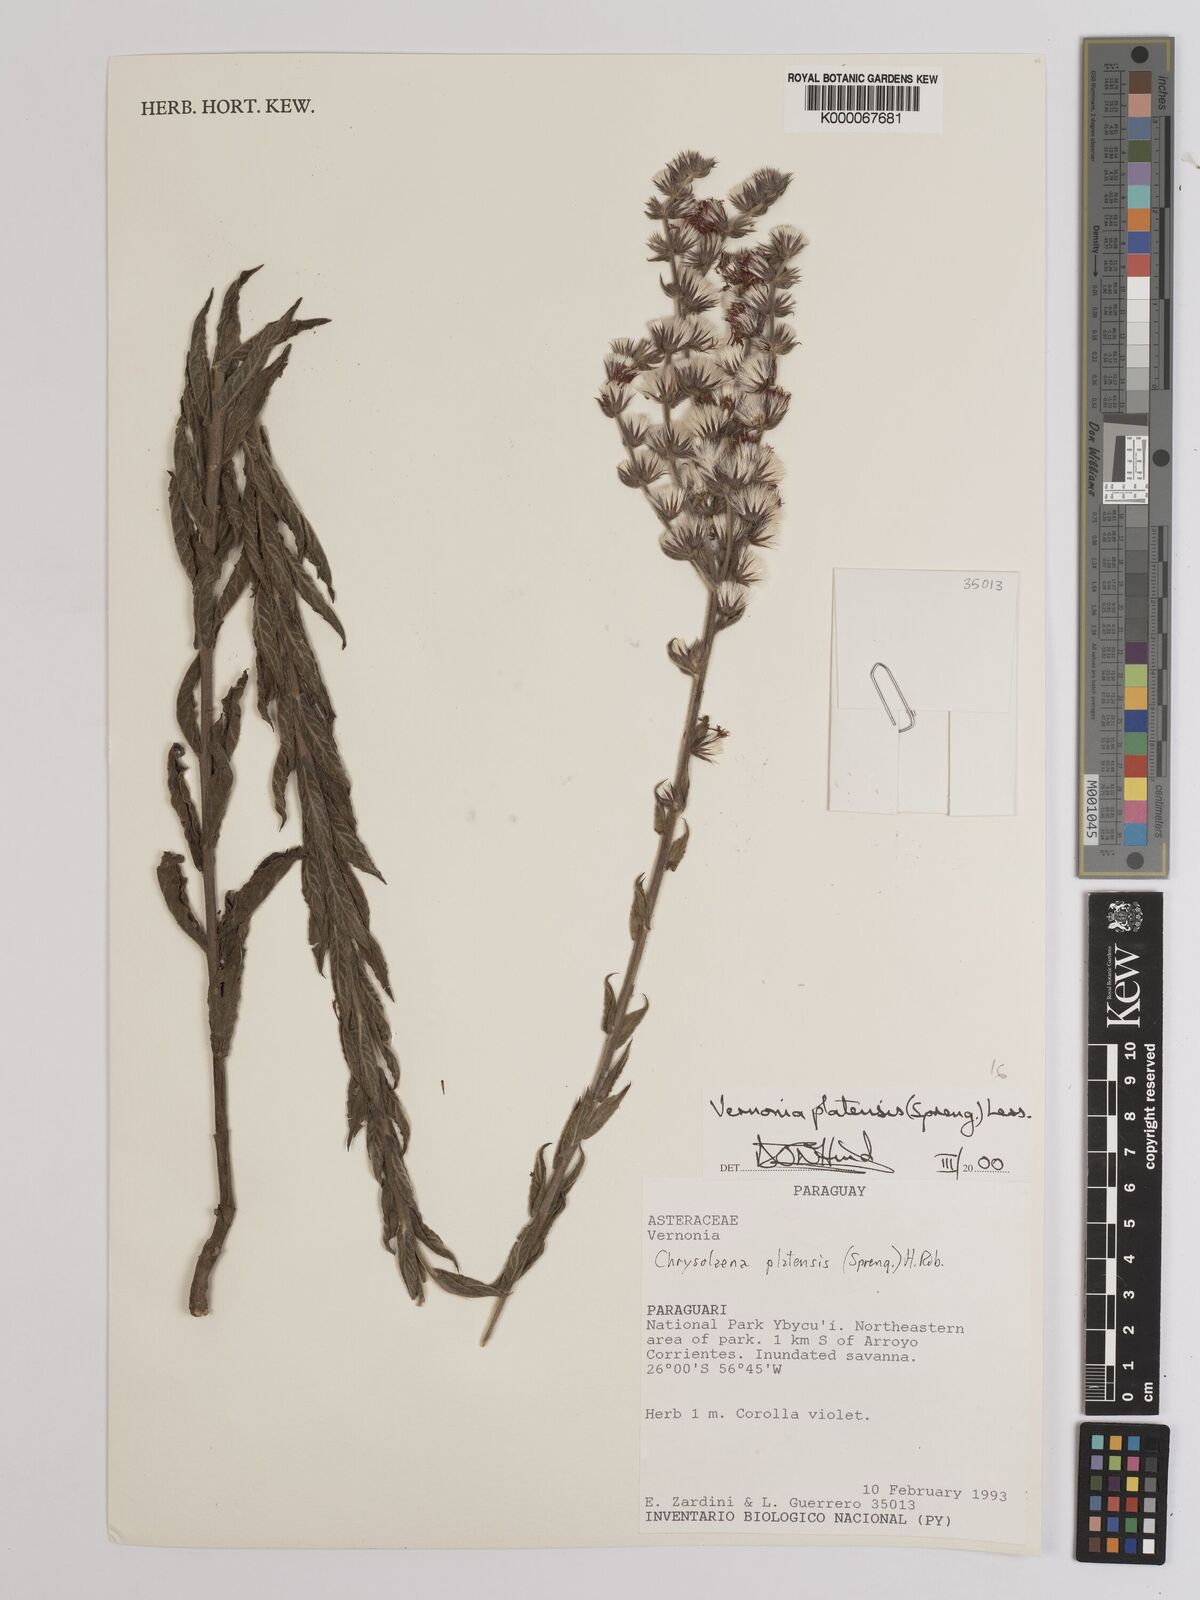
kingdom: Plantae
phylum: Tracheophyta
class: Magnoliopsida
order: Asterales
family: Asteraceae
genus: Chrysolaena
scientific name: Chrysolaena platensis
